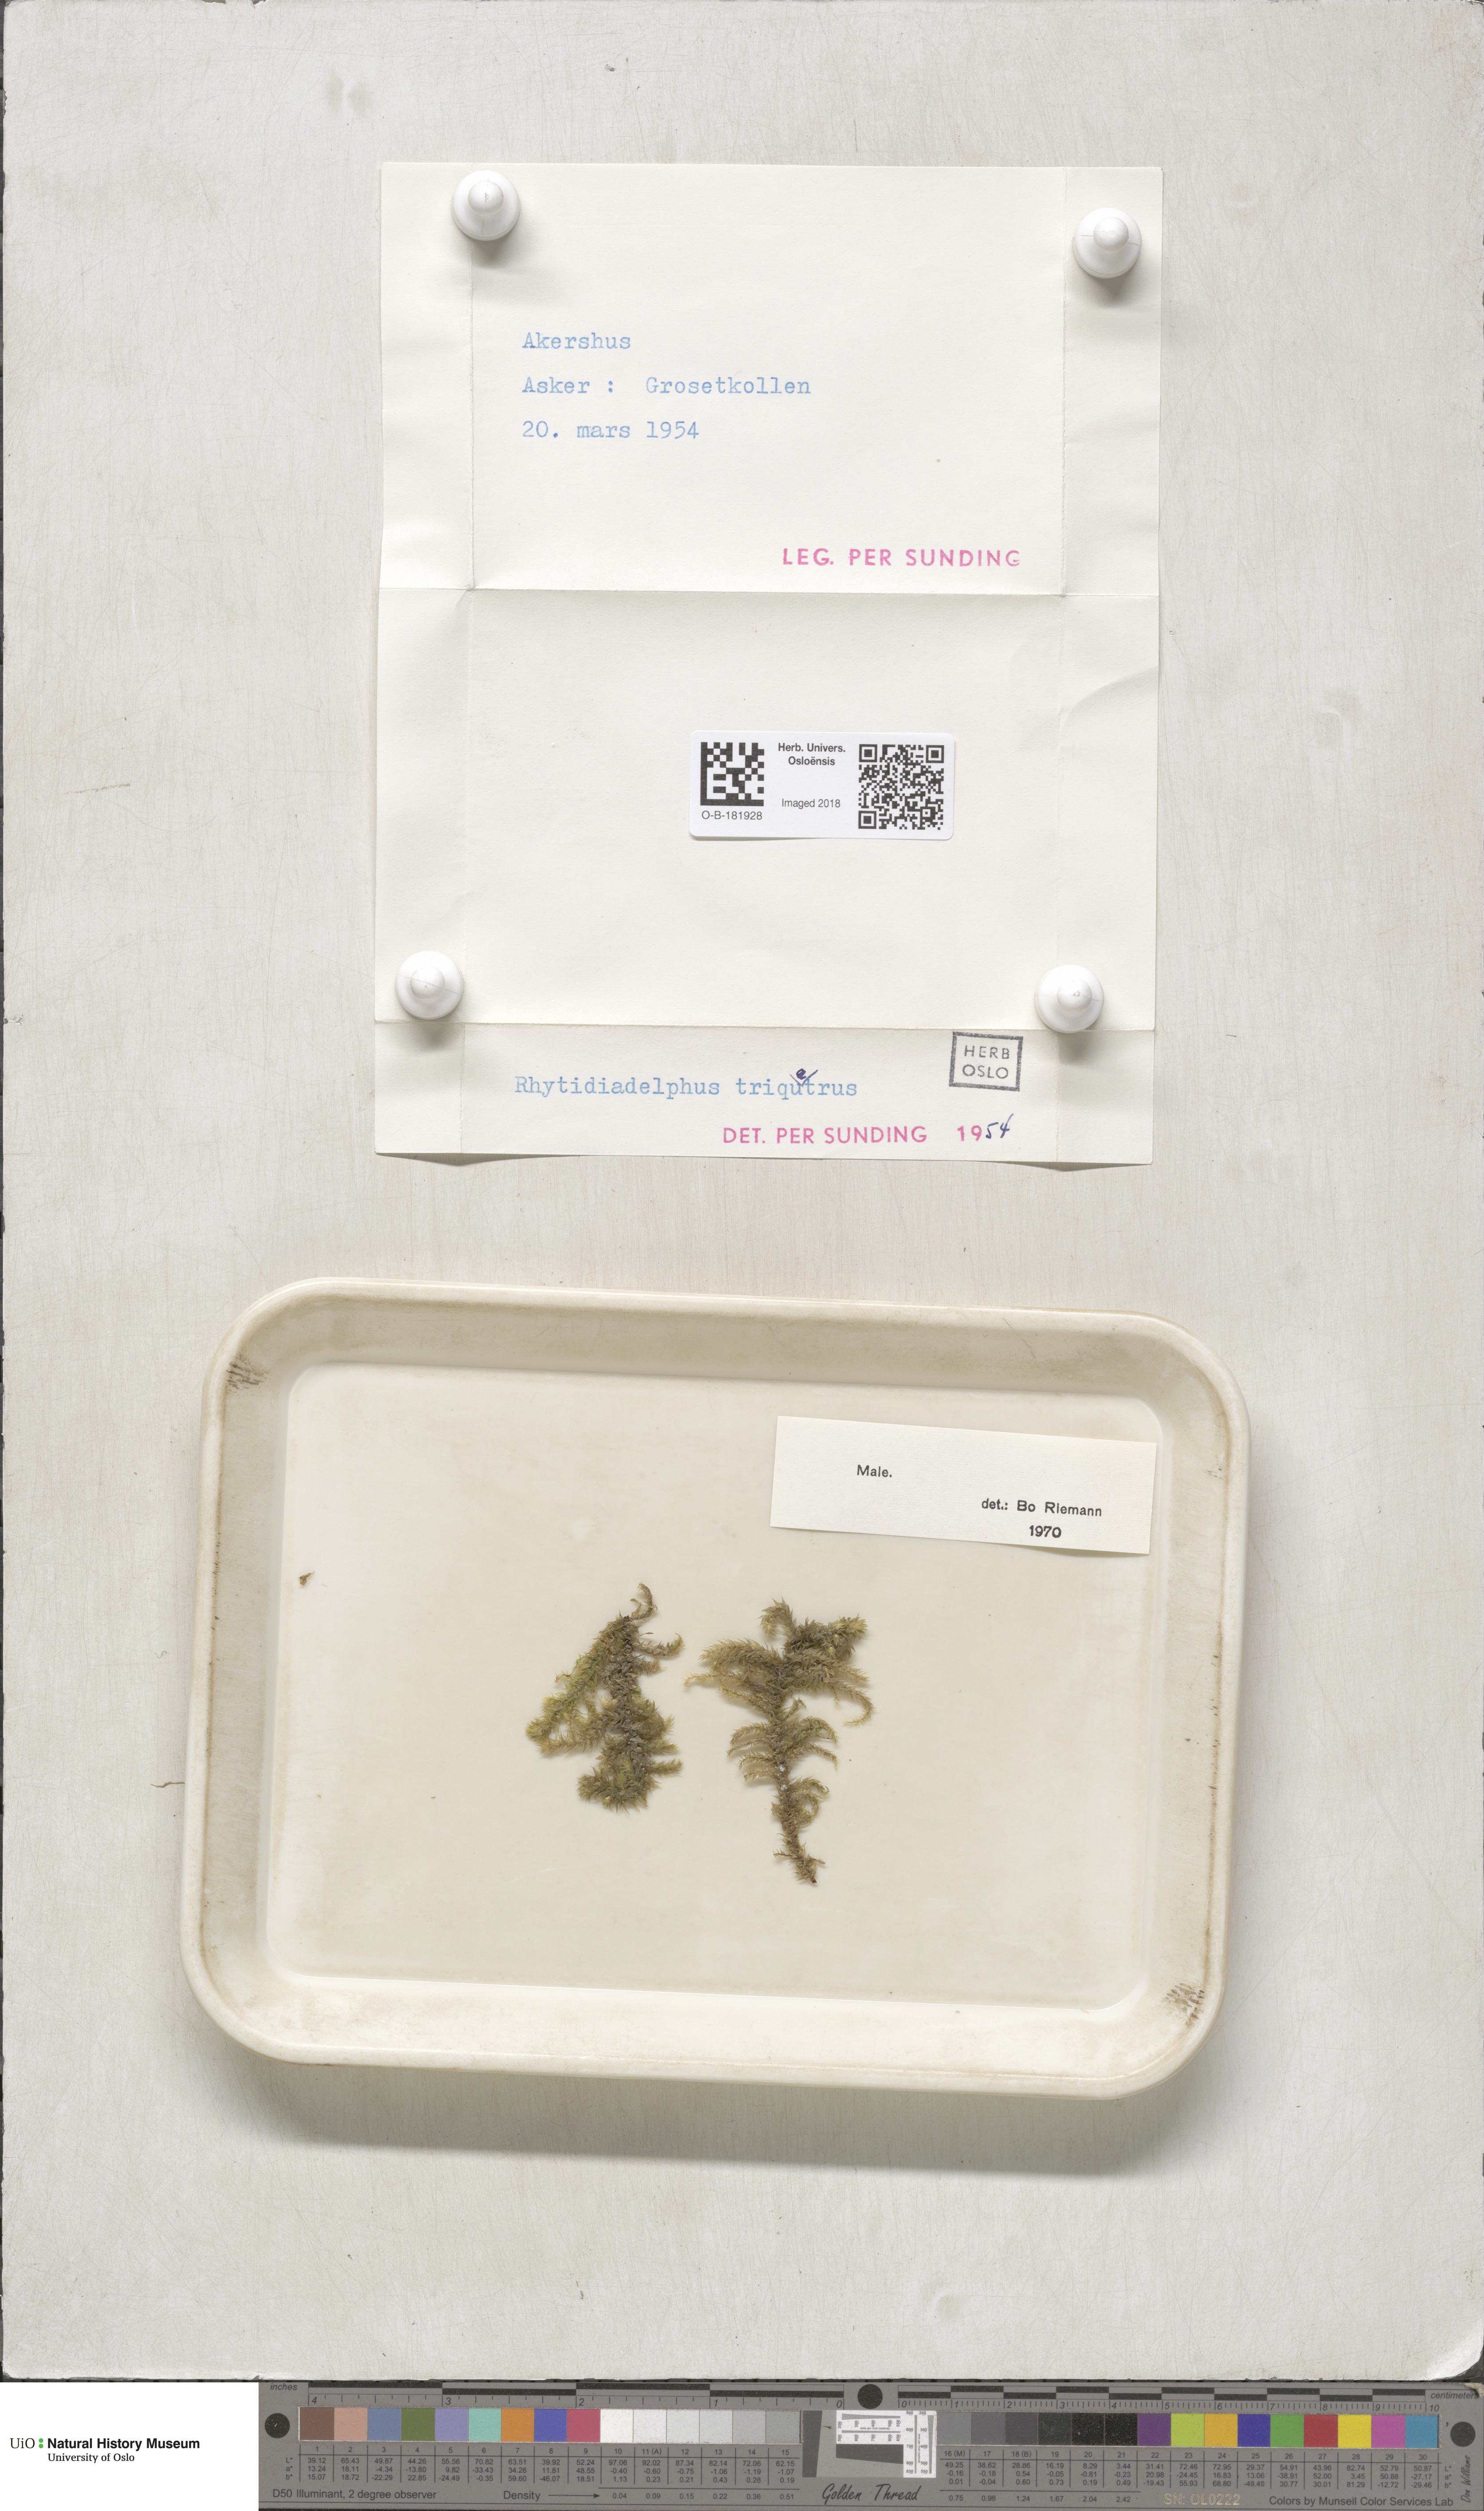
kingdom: Plantae
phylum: Bryophyta
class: Bryopsida
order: Hypnales
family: Hylocomiaceae
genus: Hylocomiadelphus
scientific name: Hylocomiadelphus triquetrus
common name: Rough goose neck moss
